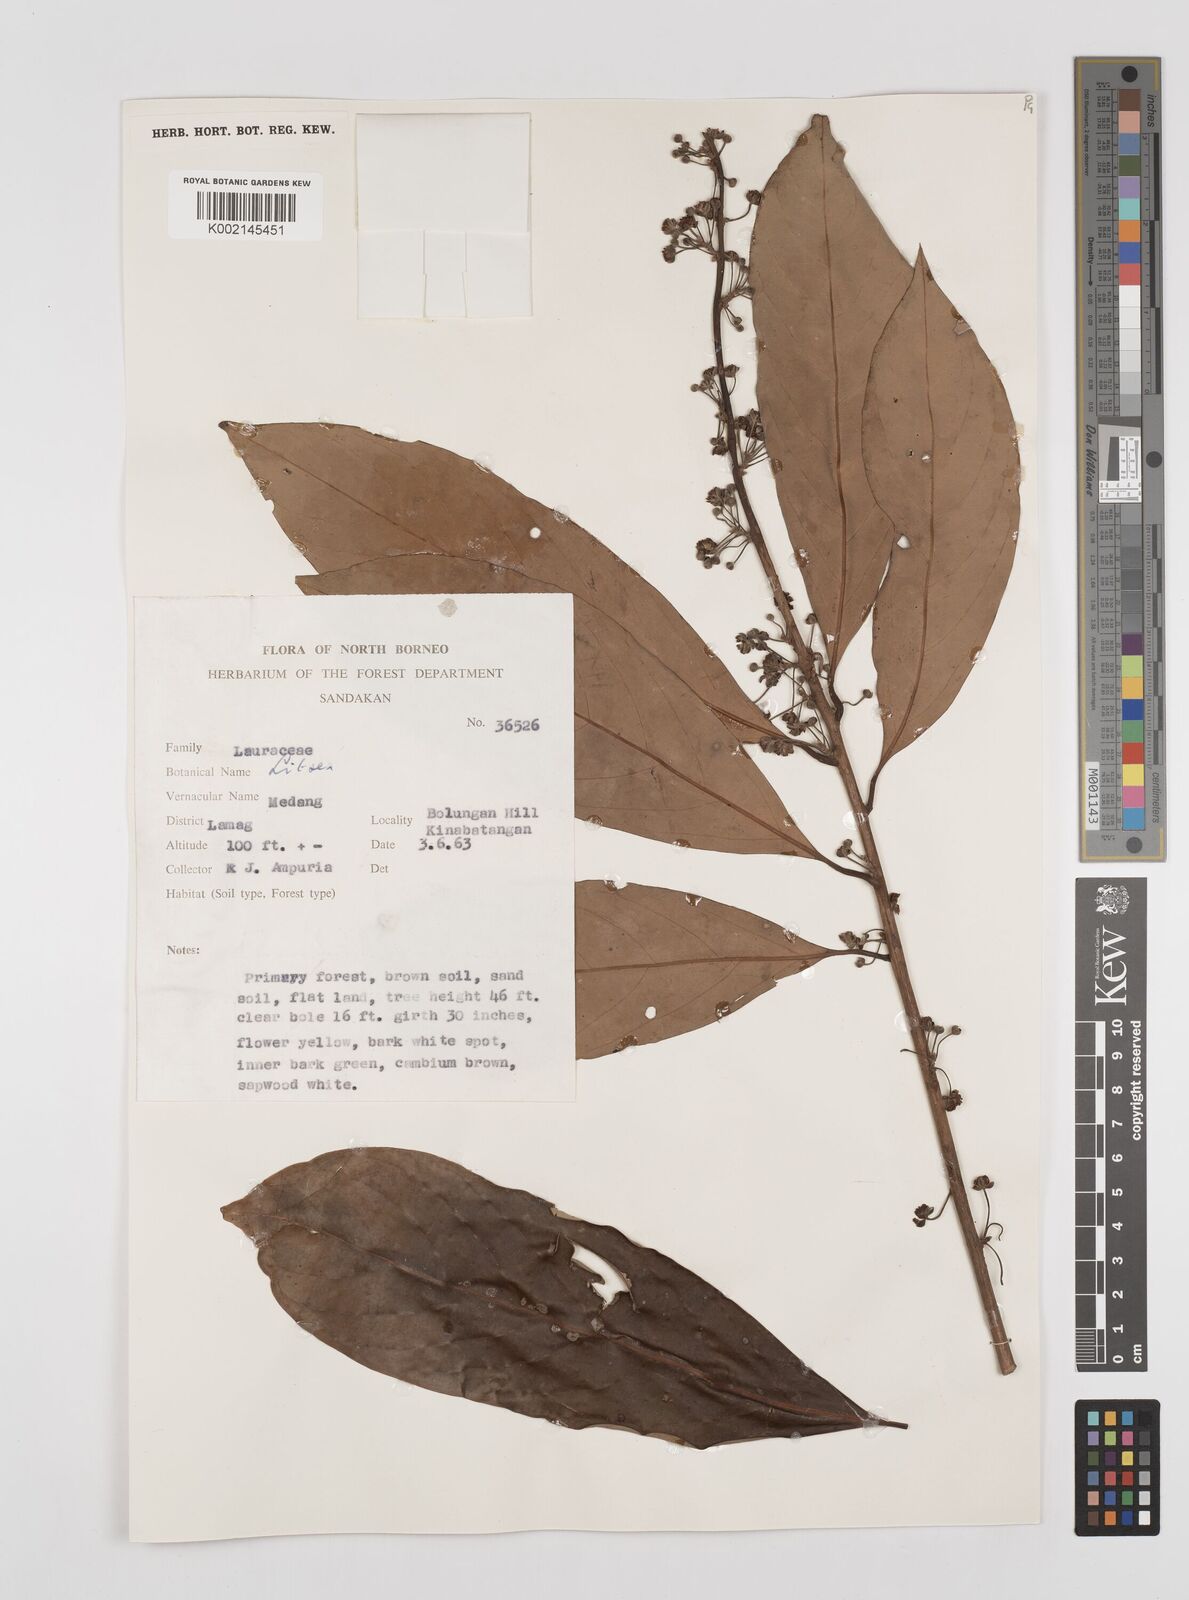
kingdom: Plantae
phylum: Tracheophyta
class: Magnoliopsida
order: Laurales
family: Lauraceae
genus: Litsea
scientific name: Litsea
